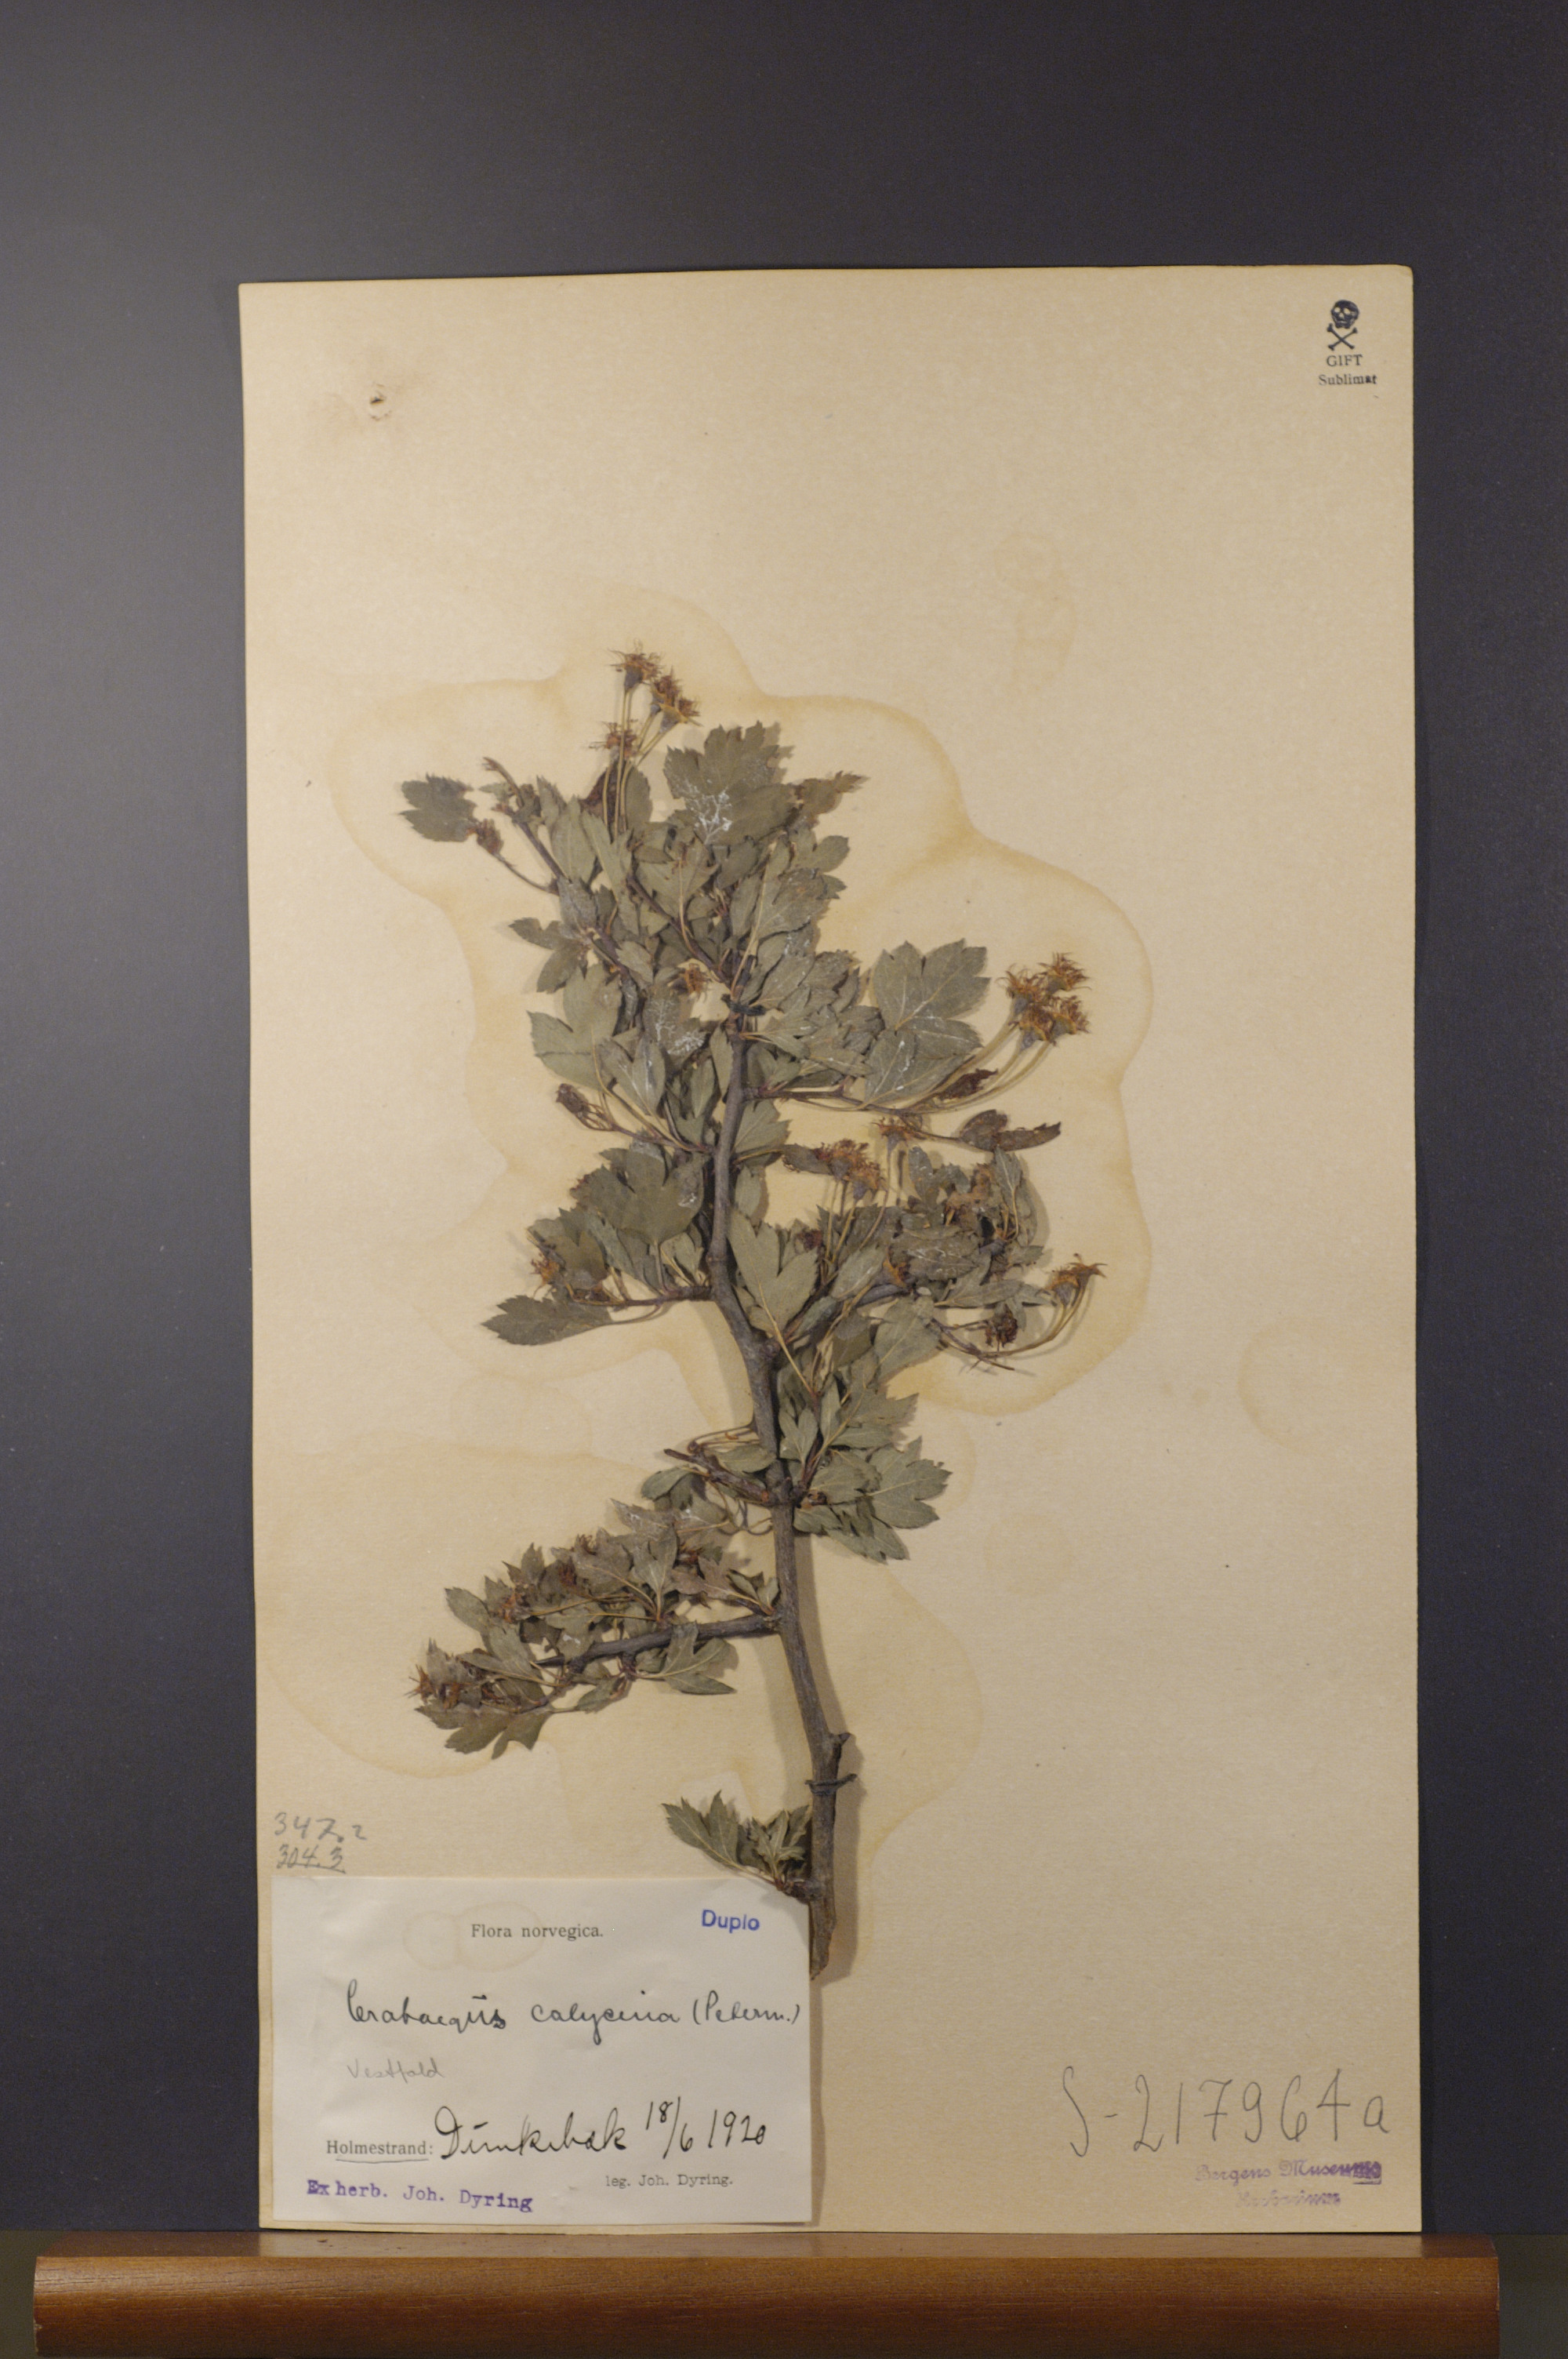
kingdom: Plantae
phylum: Tracheophyta
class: Magnoliopsida
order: Rosales
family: Rosaceae
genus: Crataegus
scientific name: Crataegus lindmanii
